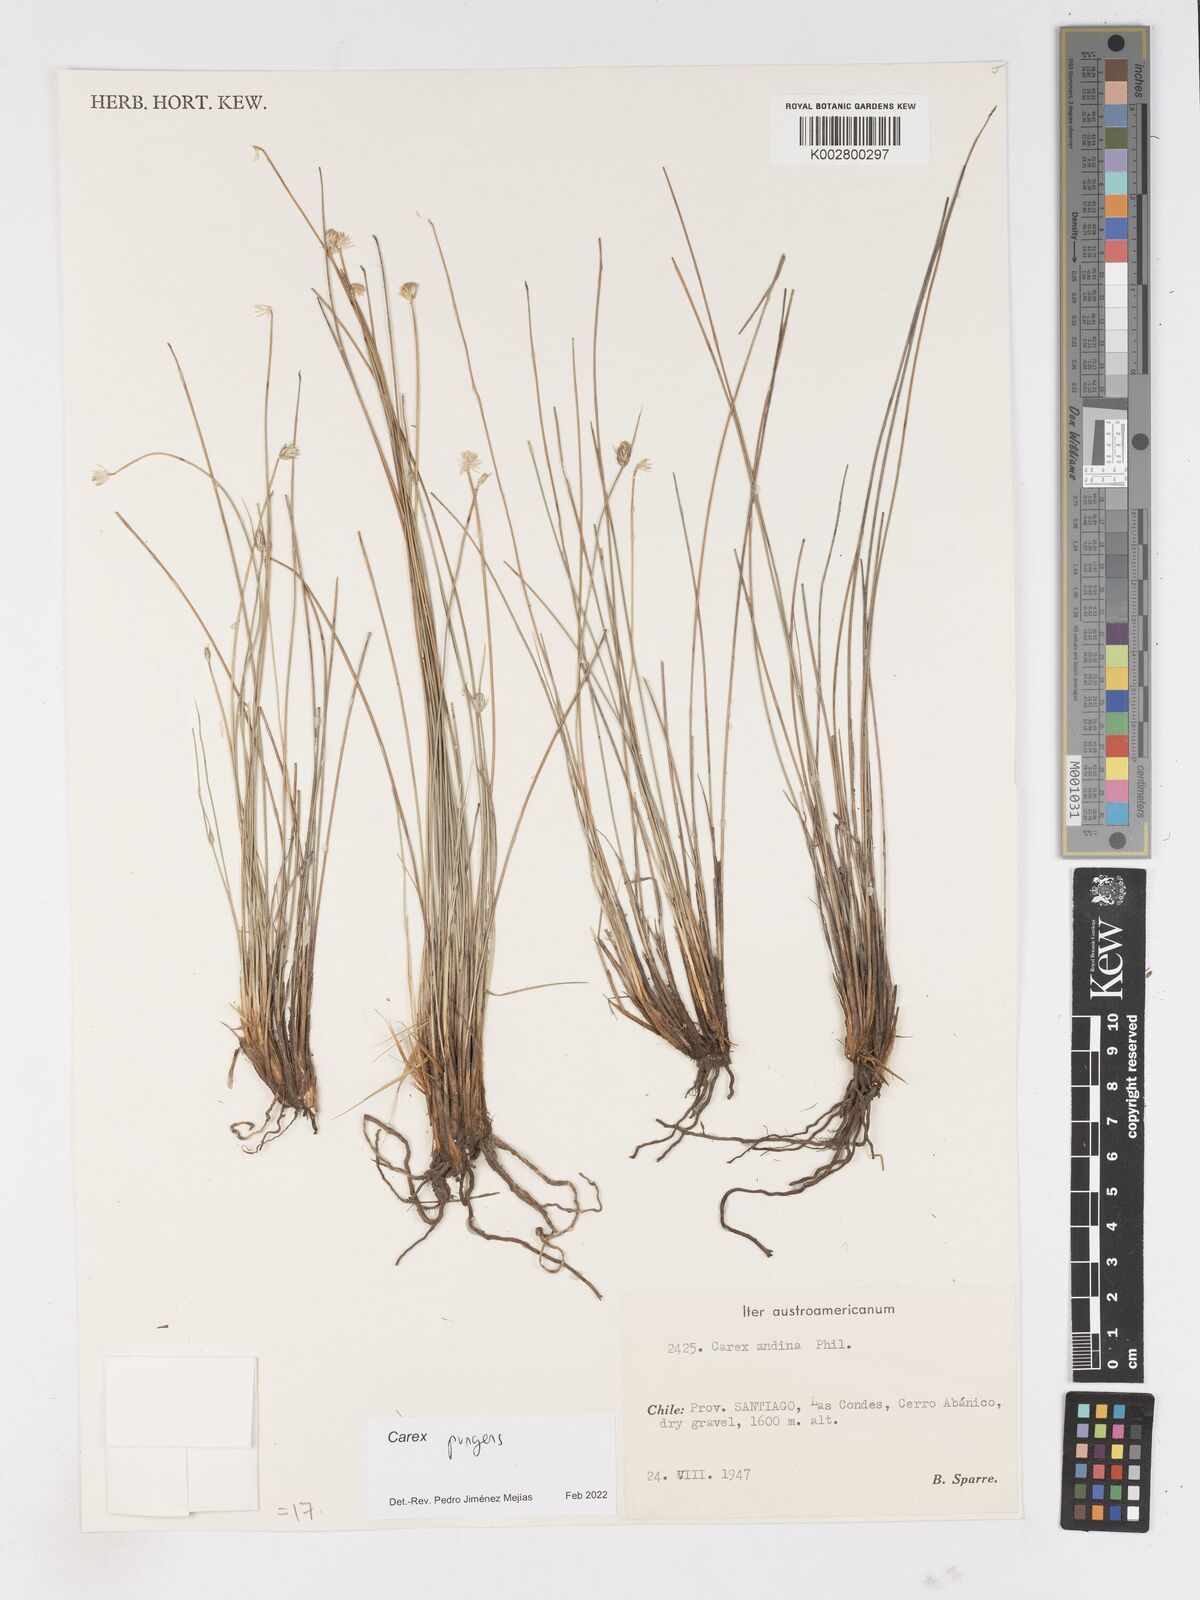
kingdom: Plantae
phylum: Tracheophyta
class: Liliopsida
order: Poales
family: Cyperaceae
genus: Carex
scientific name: Carex setifolia
